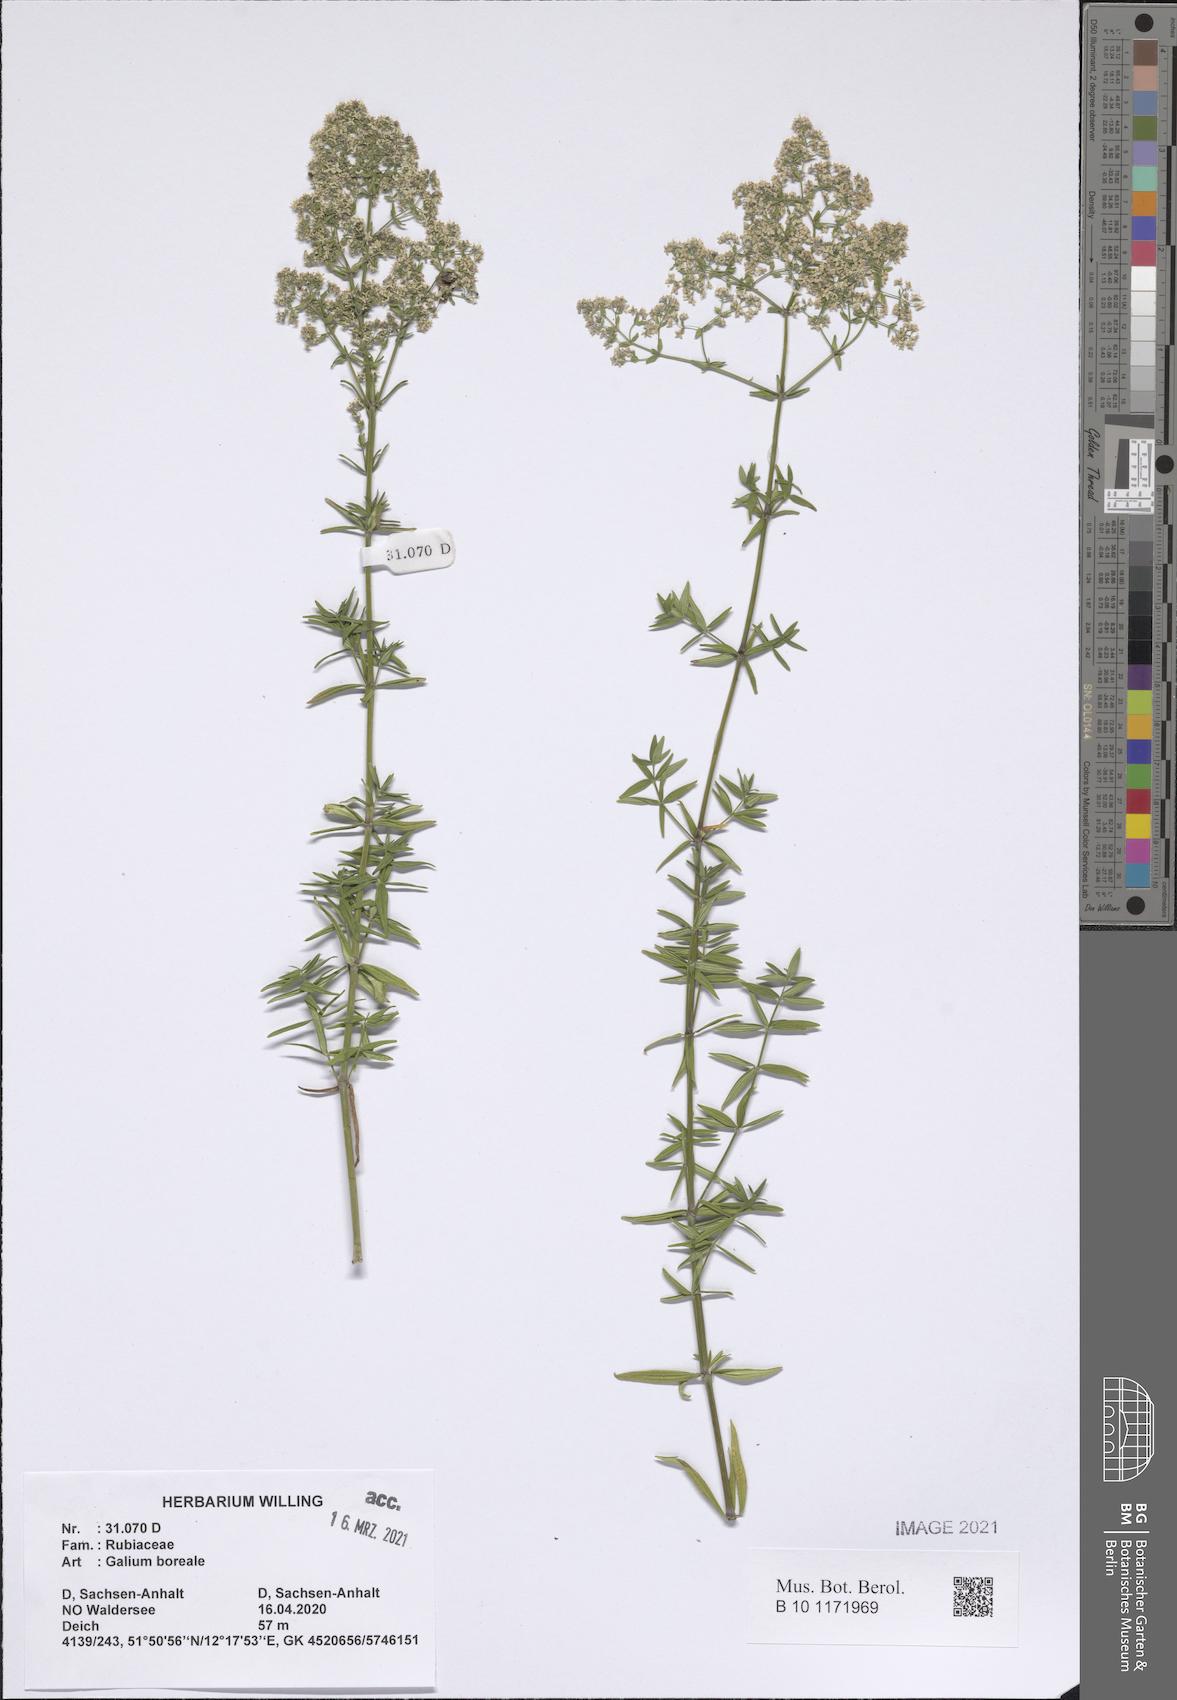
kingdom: Plantae
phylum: Tracheophyta
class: Magnoliopsida
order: Gentianales
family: Rubiaceae
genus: Galium
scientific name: Galium boreale
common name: Northern bedstraw
